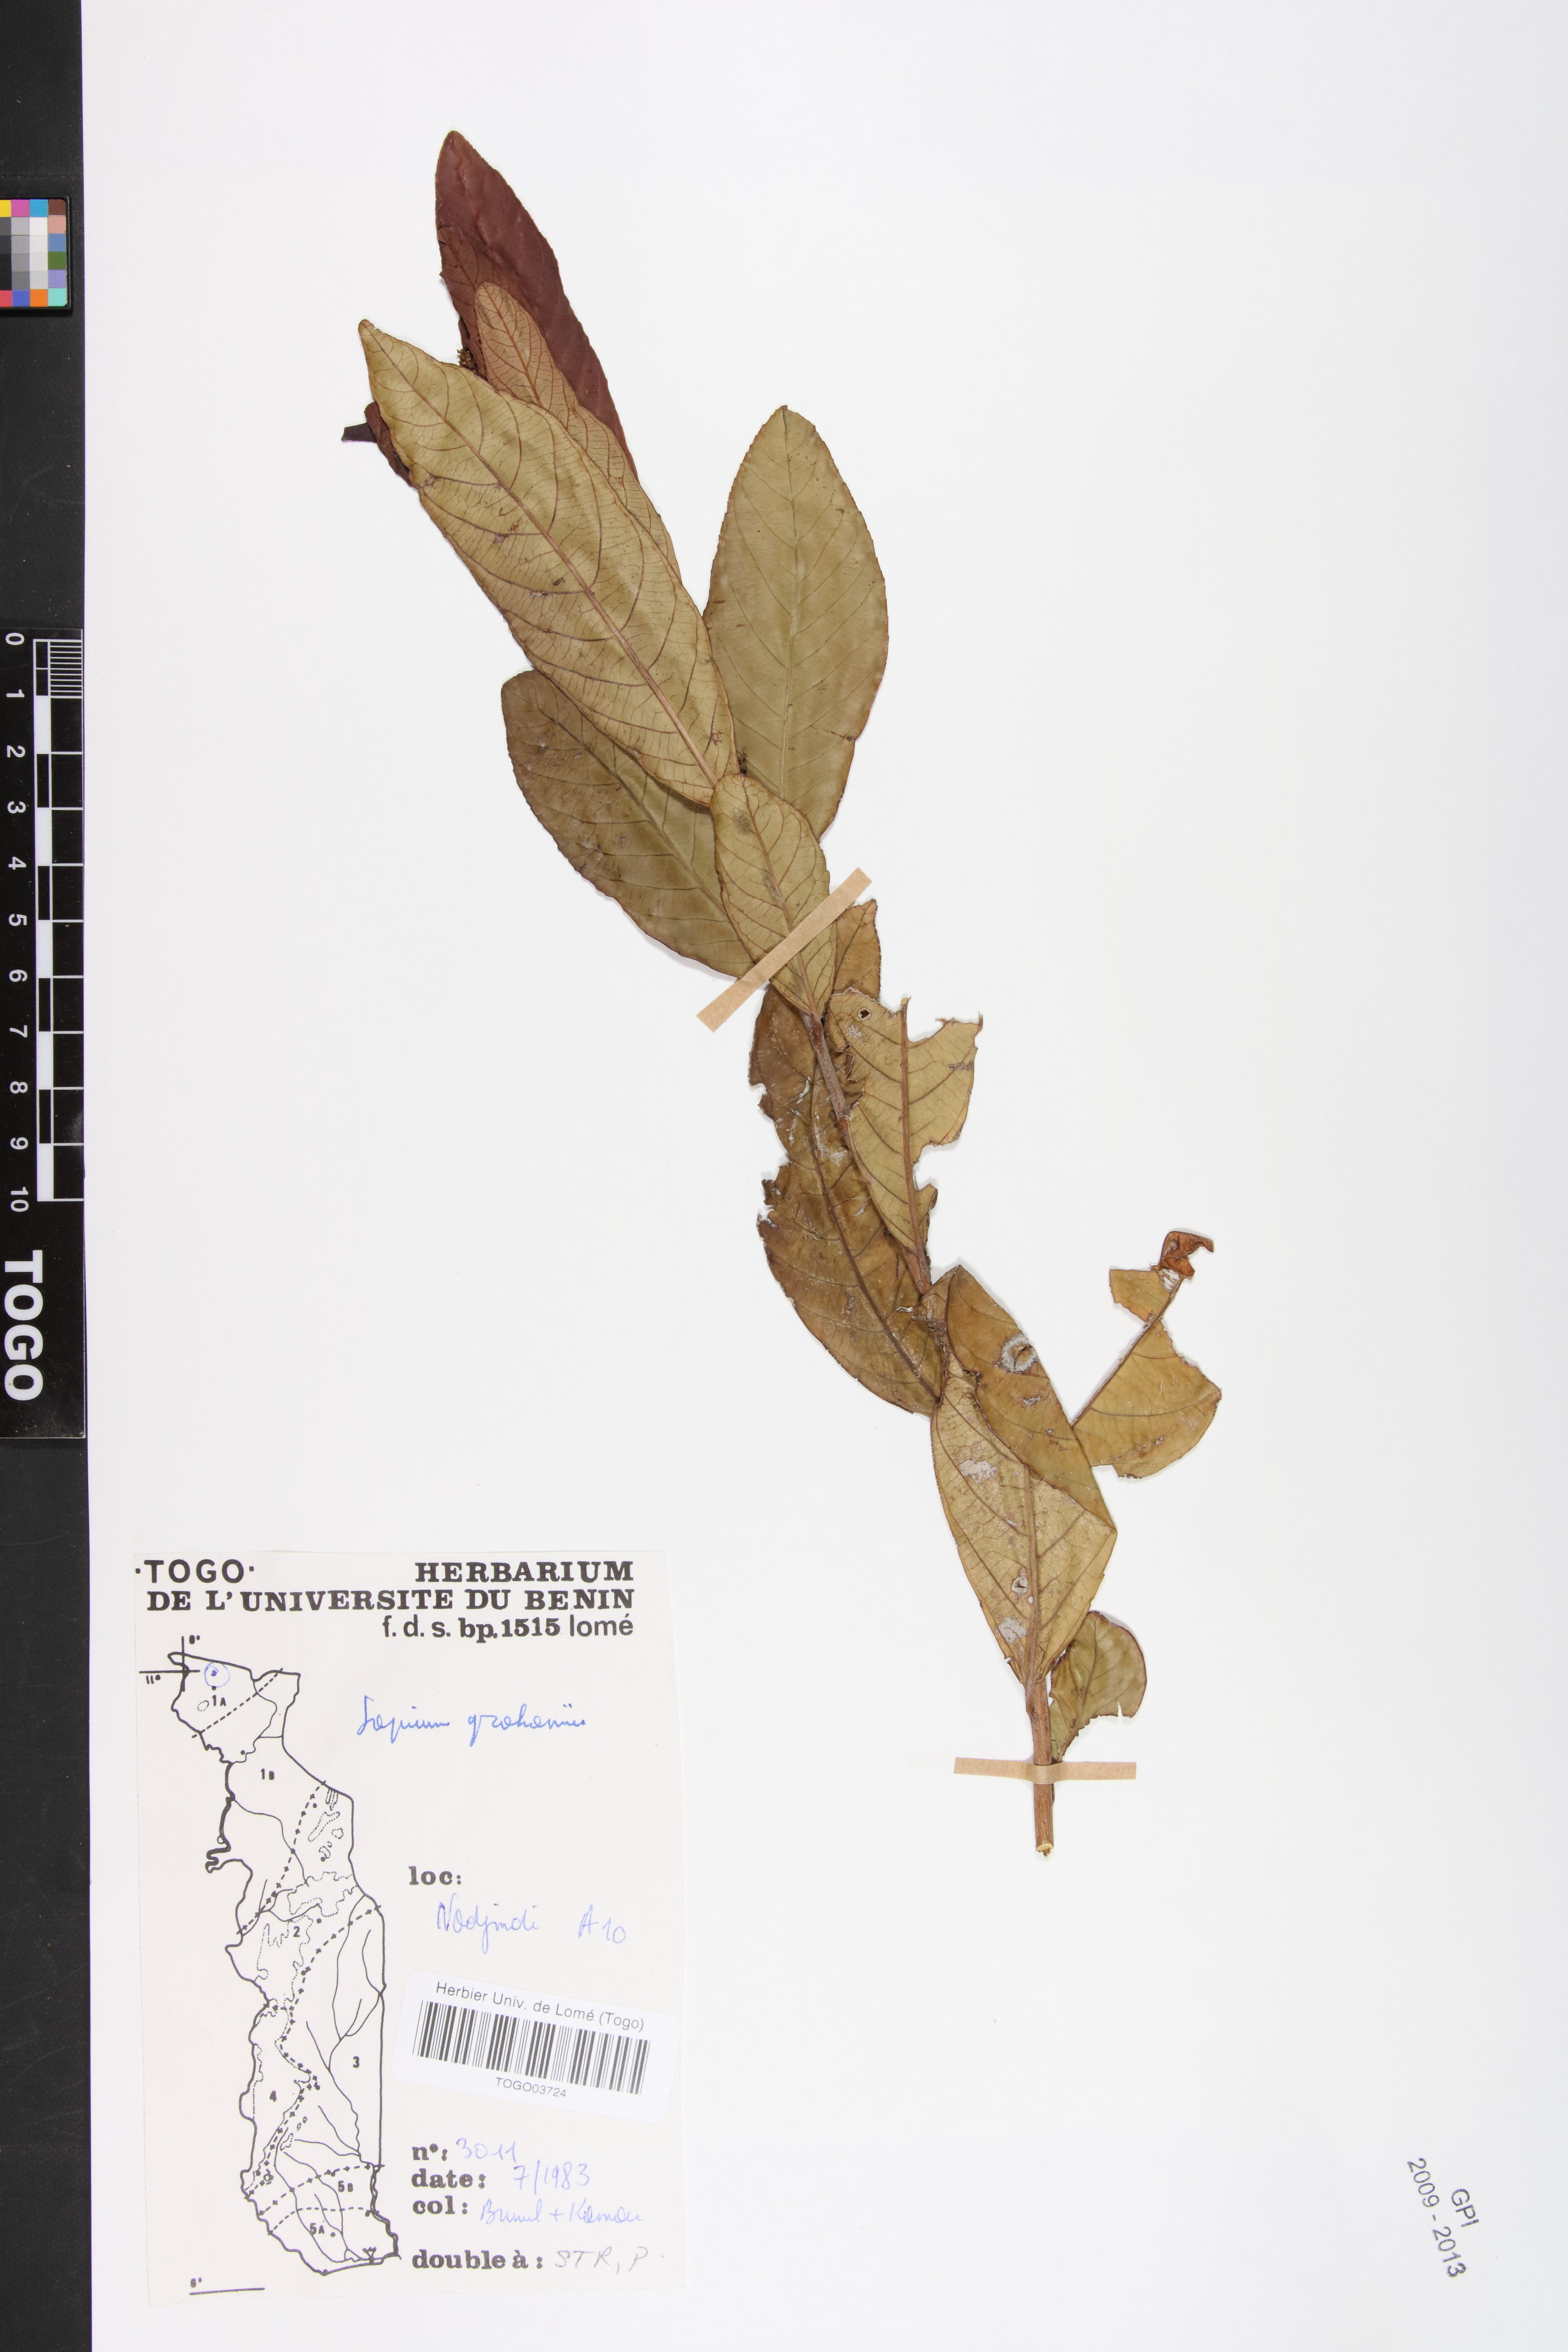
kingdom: Plantae
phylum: Tracheophyta
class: Magnoliopsida
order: Malpighiales
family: Euphorbiaceae
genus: Excoecaria
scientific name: Excoecaria grahamii
